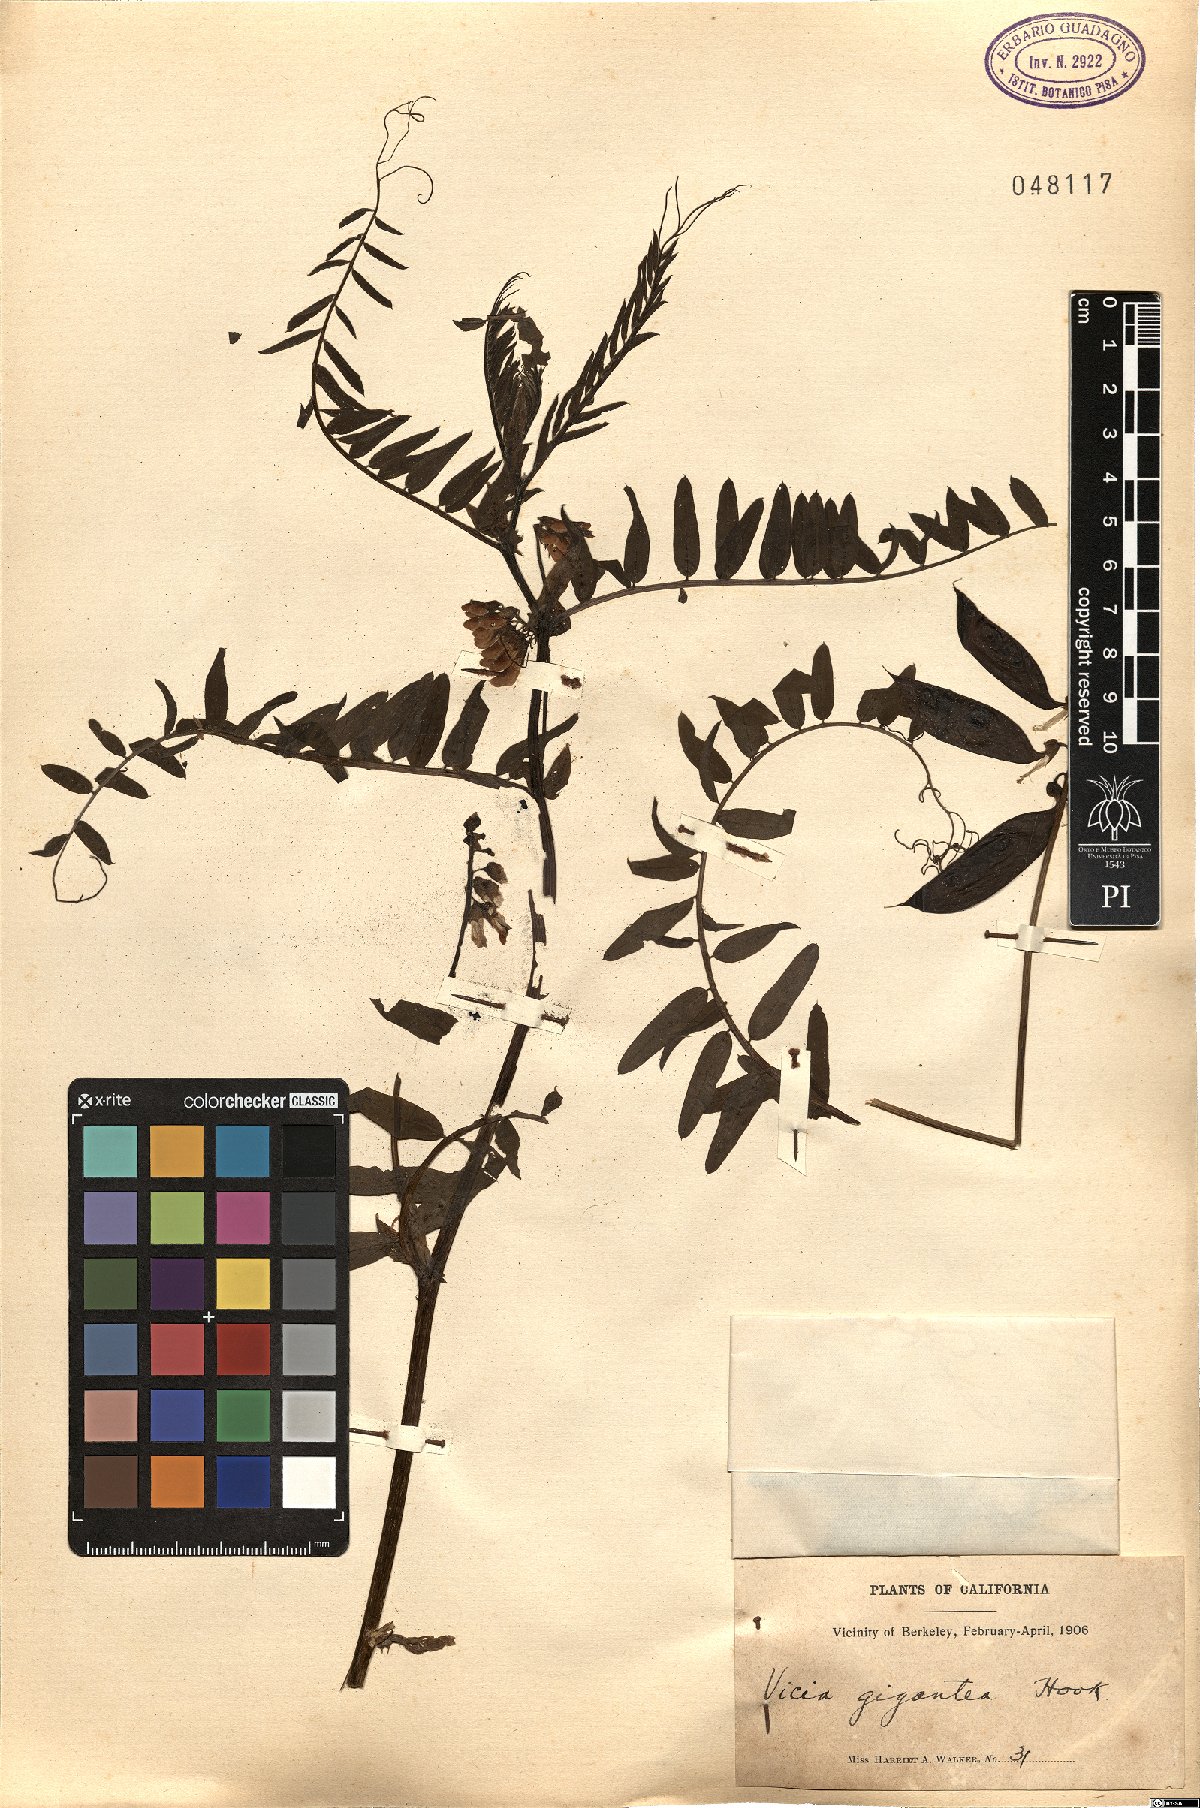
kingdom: Plantae
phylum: Tracheophyta
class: Magnoliopsida
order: Fabales
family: Fabaceae
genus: Vicia
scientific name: Vicia nigricans
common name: Black vetch
